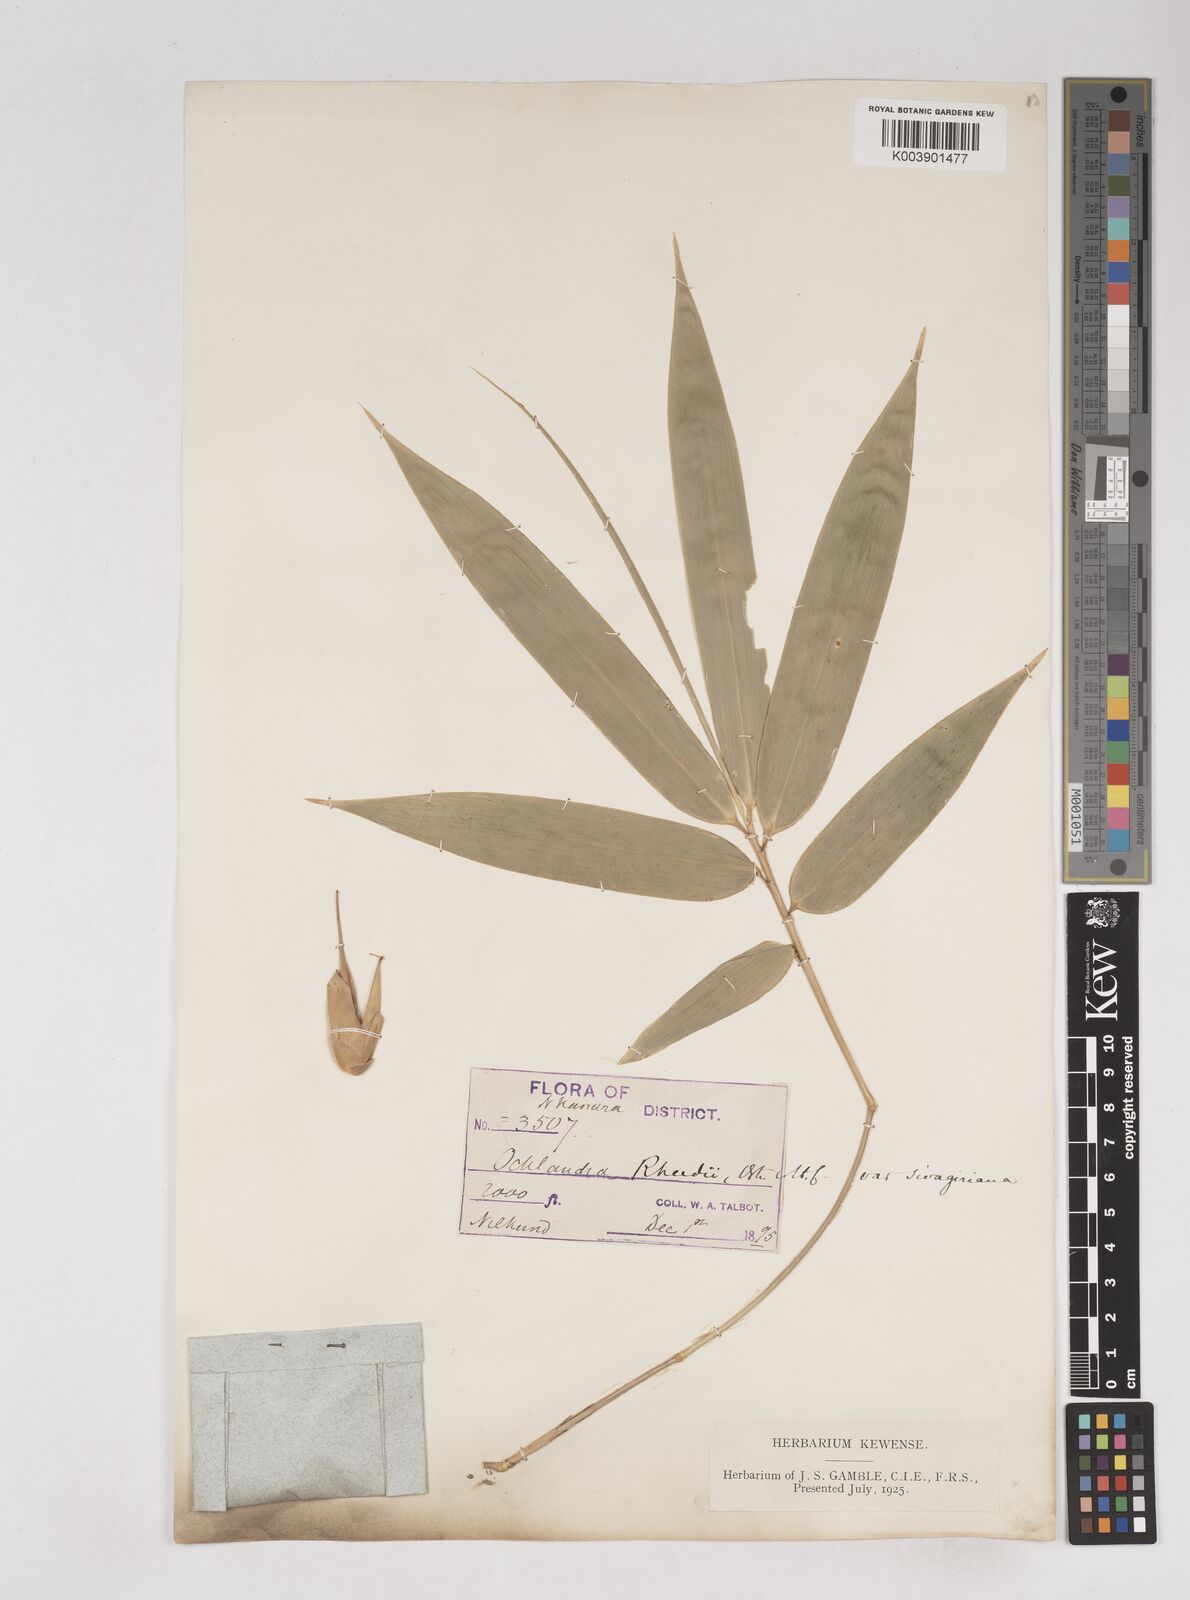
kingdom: Plantae
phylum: Tracheophyta
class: Liliopsida
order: Poales
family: Poaceae
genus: Ochlandra
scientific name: Ochlandra scriptoria
